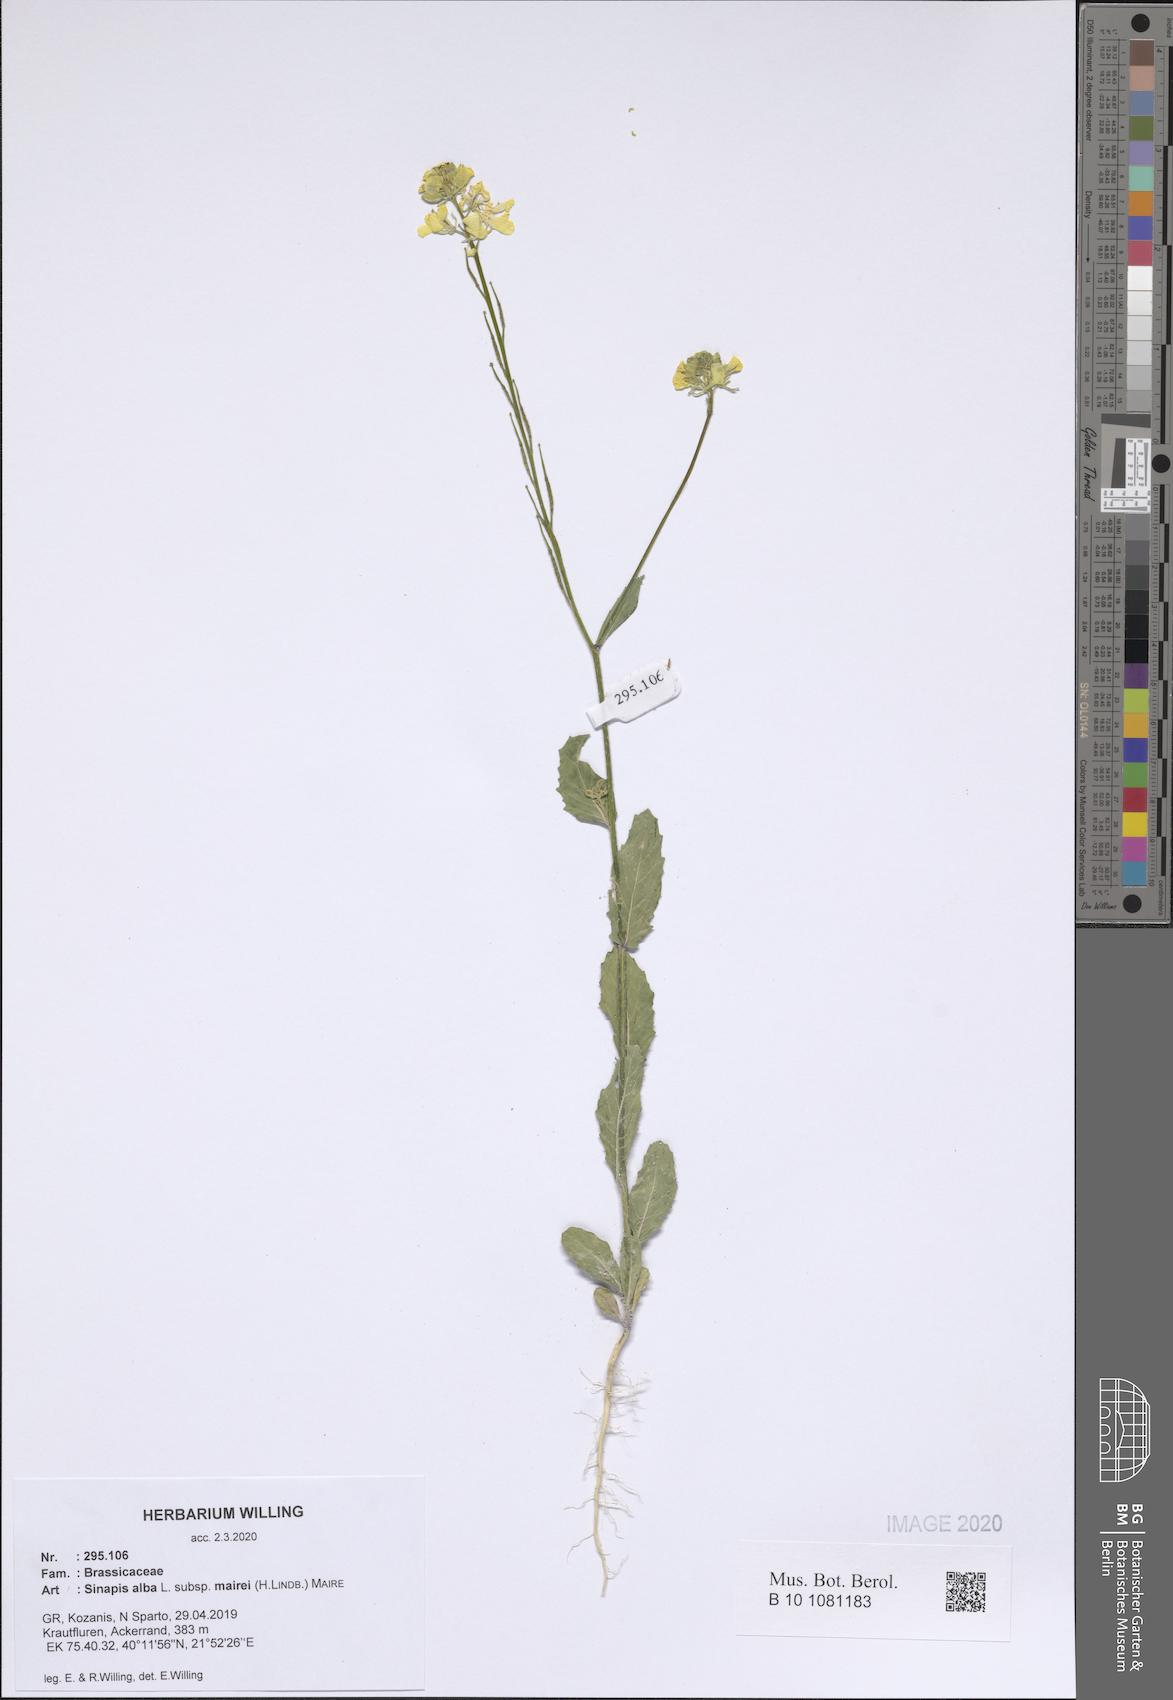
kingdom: Plantae
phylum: Tracheophyta
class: Magnoliopsida
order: Brassicales
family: Brassicaceae
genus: Sinapis
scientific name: Sinapis alba
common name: White mustard
